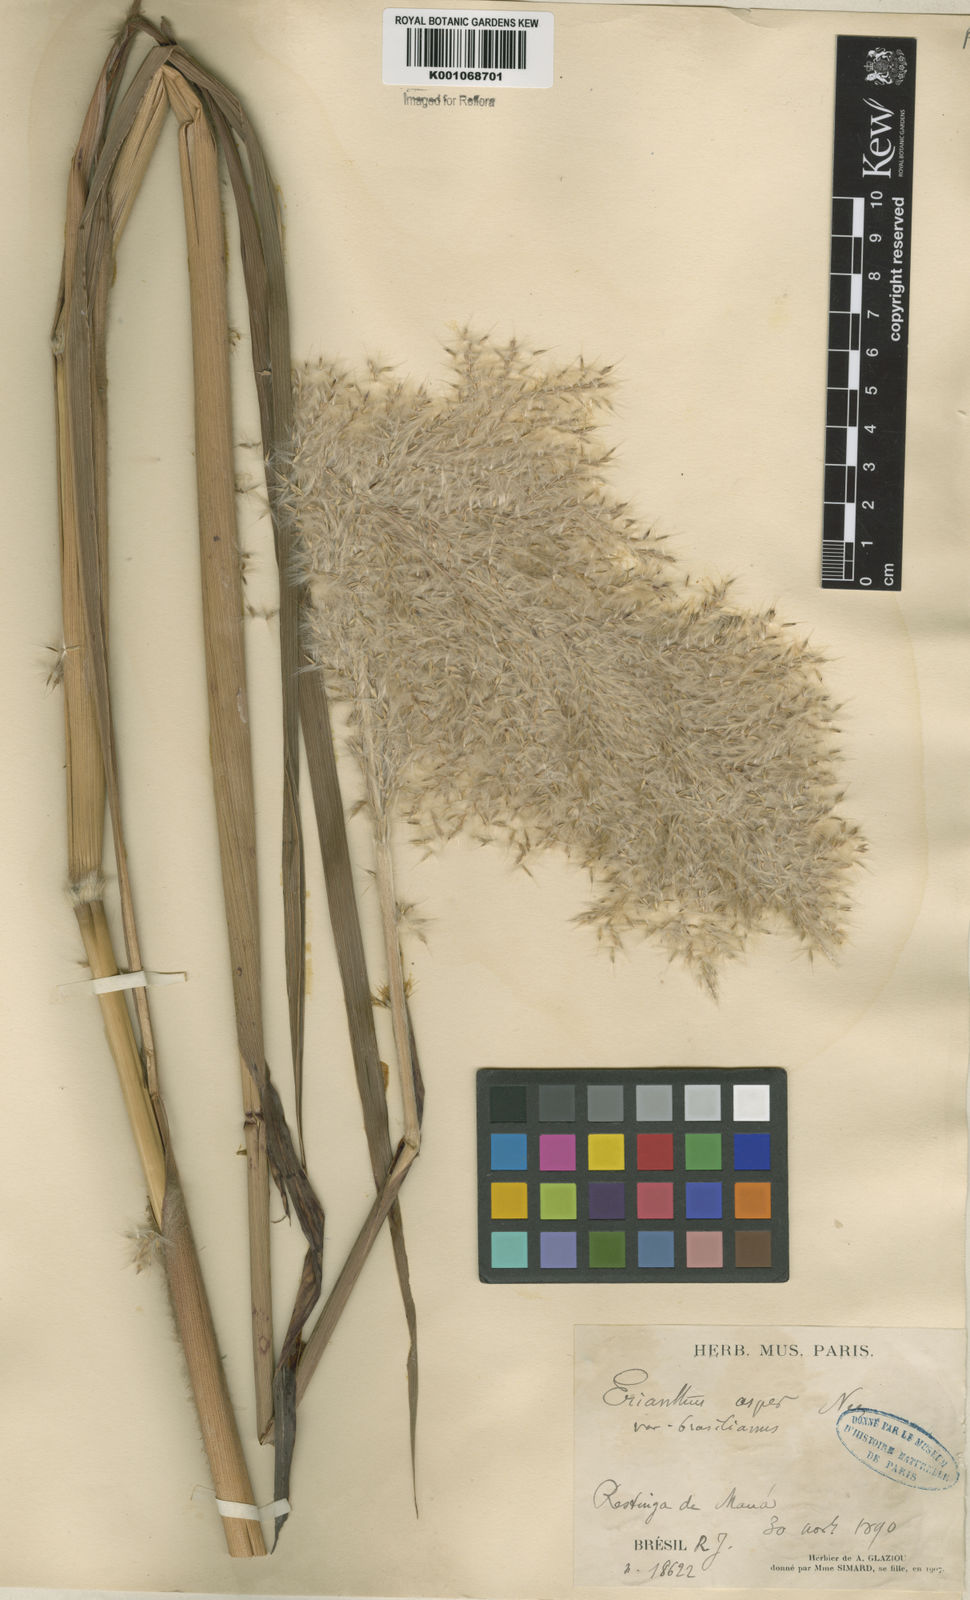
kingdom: Plantae
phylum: Tracheophyta
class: Liliopsida
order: Poales
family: Poaceae
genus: Erianthus
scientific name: Erianthus asper
